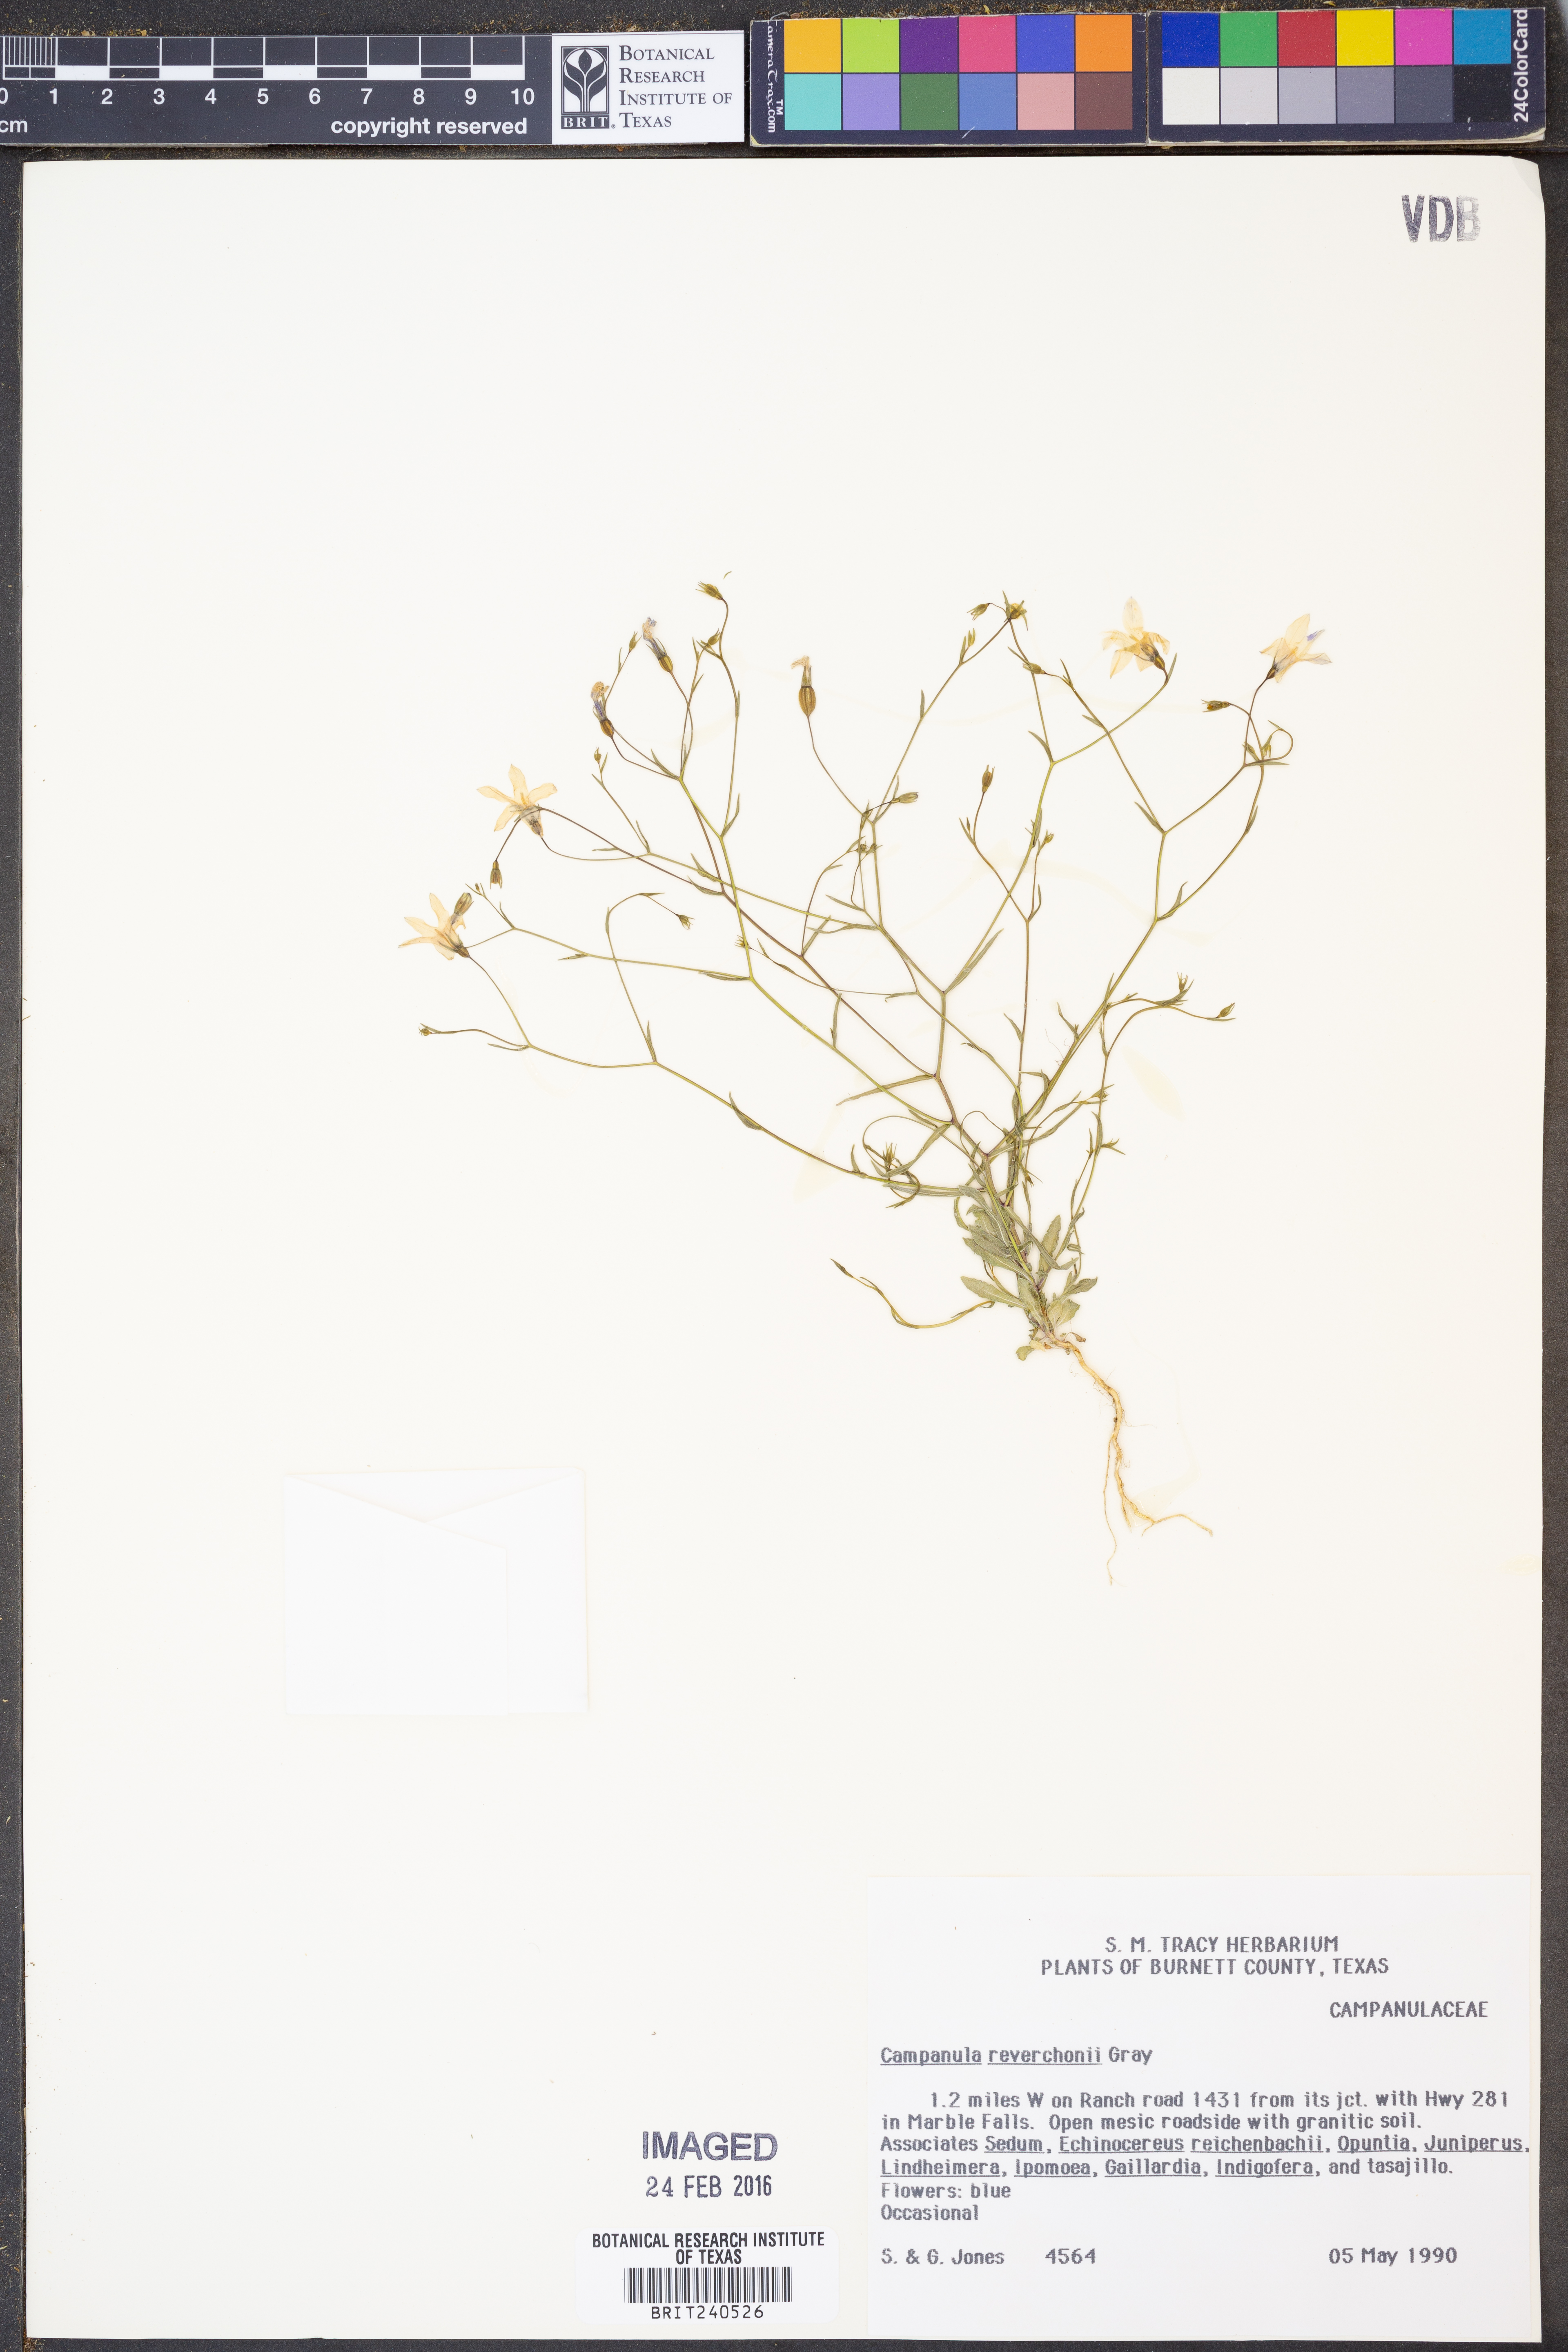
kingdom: Plantae
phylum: Tracheophyta
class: Magnoliopsida
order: Asterales
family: Campanulaceae
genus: Poolea
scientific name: Poolea reverchonii
